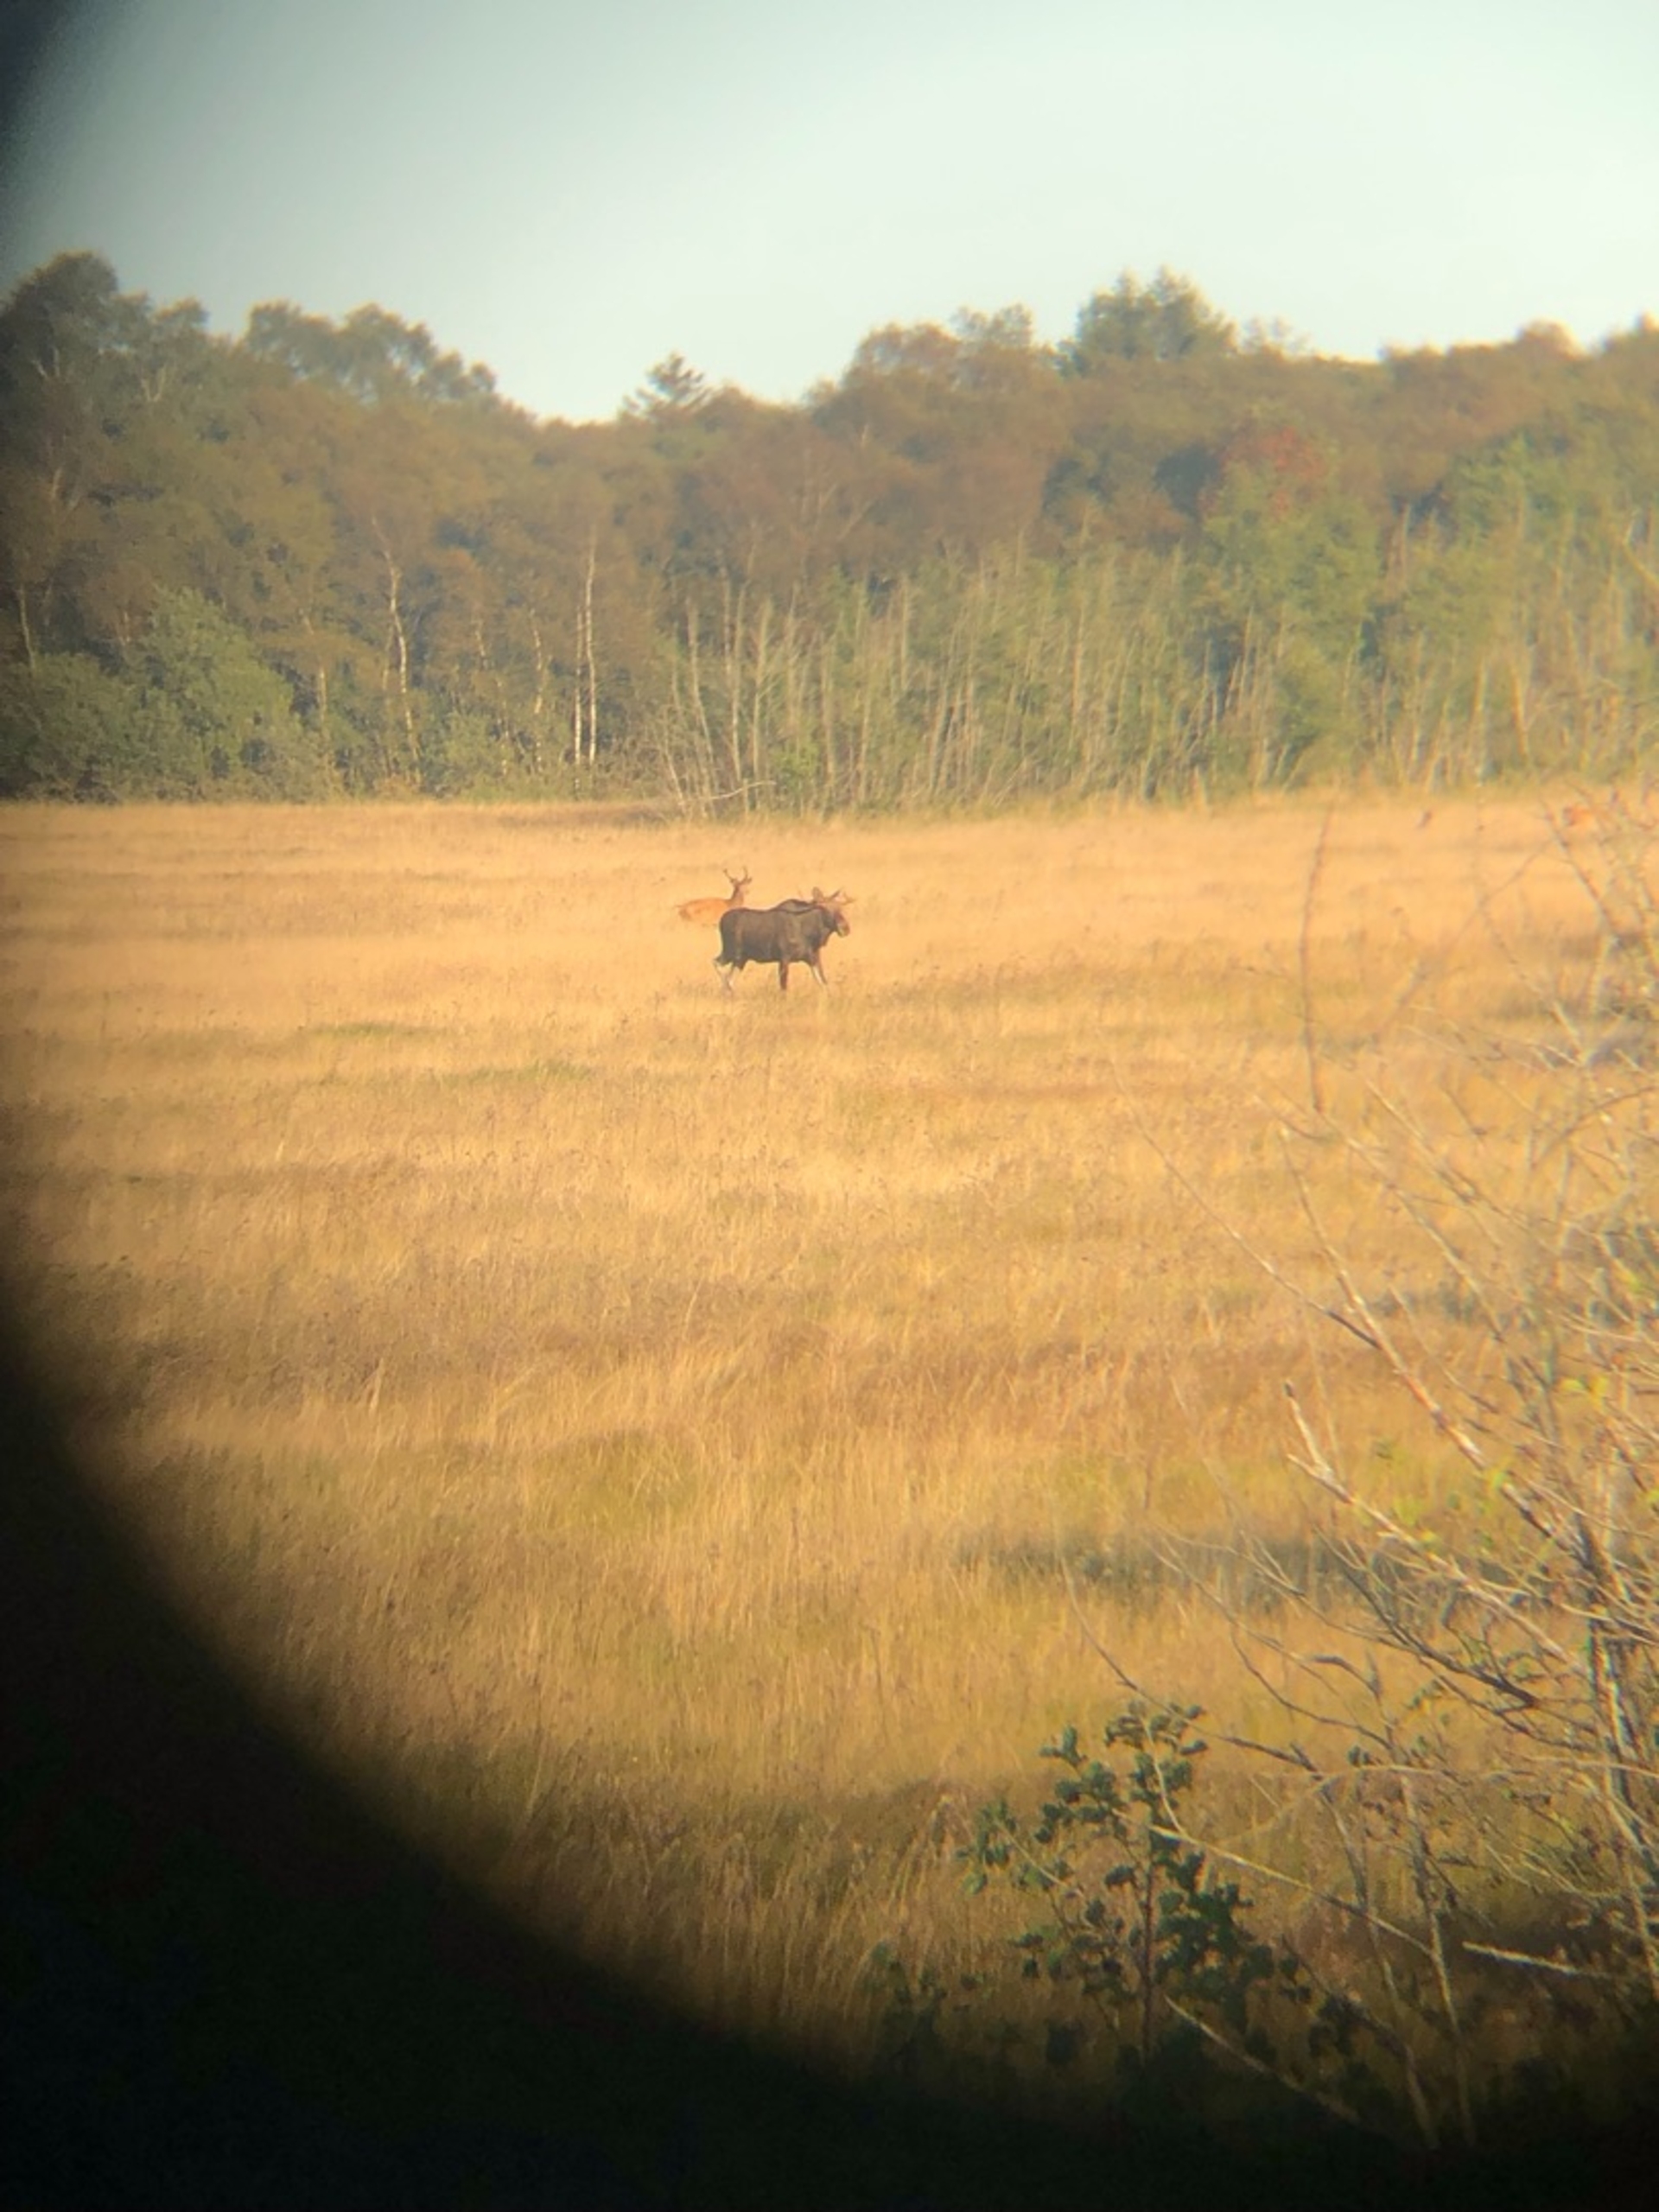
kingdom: Animalia
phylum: Chordata
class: Mammalia
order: Artiodactyla
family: Cervidae
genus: Alces
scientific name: Alces alces
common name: Elg
